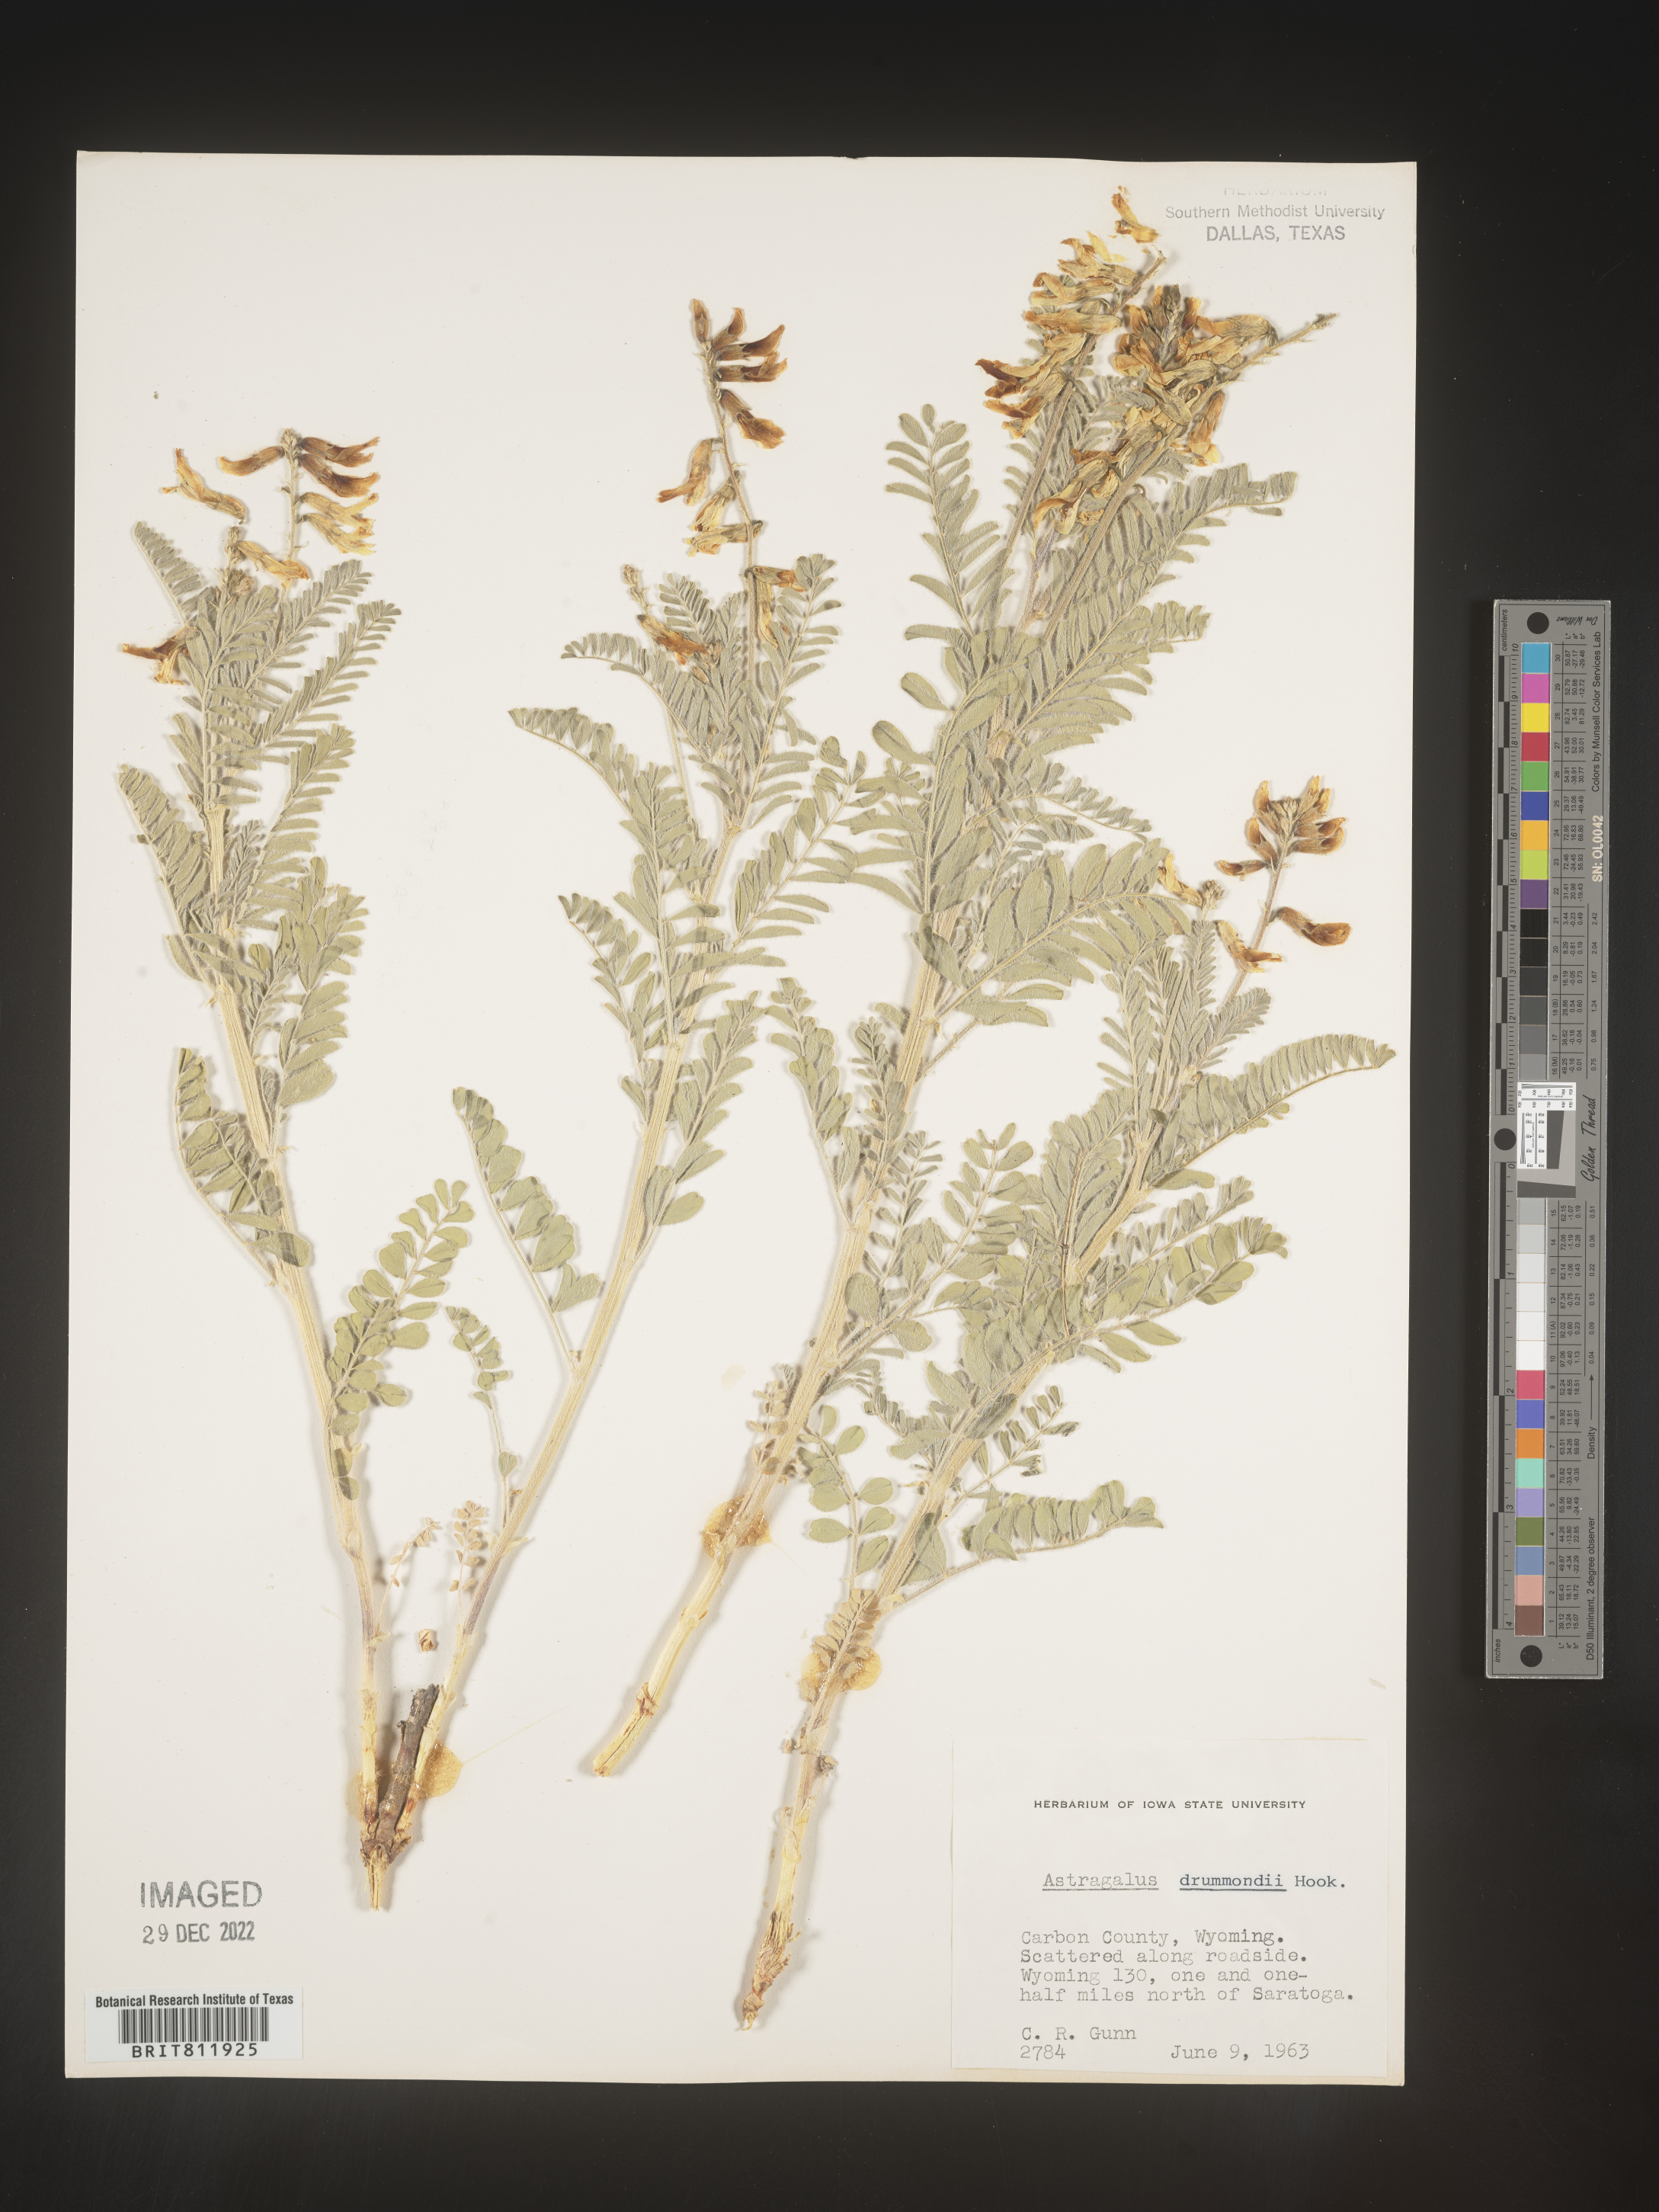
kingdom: Plantae
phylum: Tracheophyta
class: Magnoliopsida
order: Fabales
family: Fabaceae
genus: Astragalus
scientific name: Astragalus drummondii
